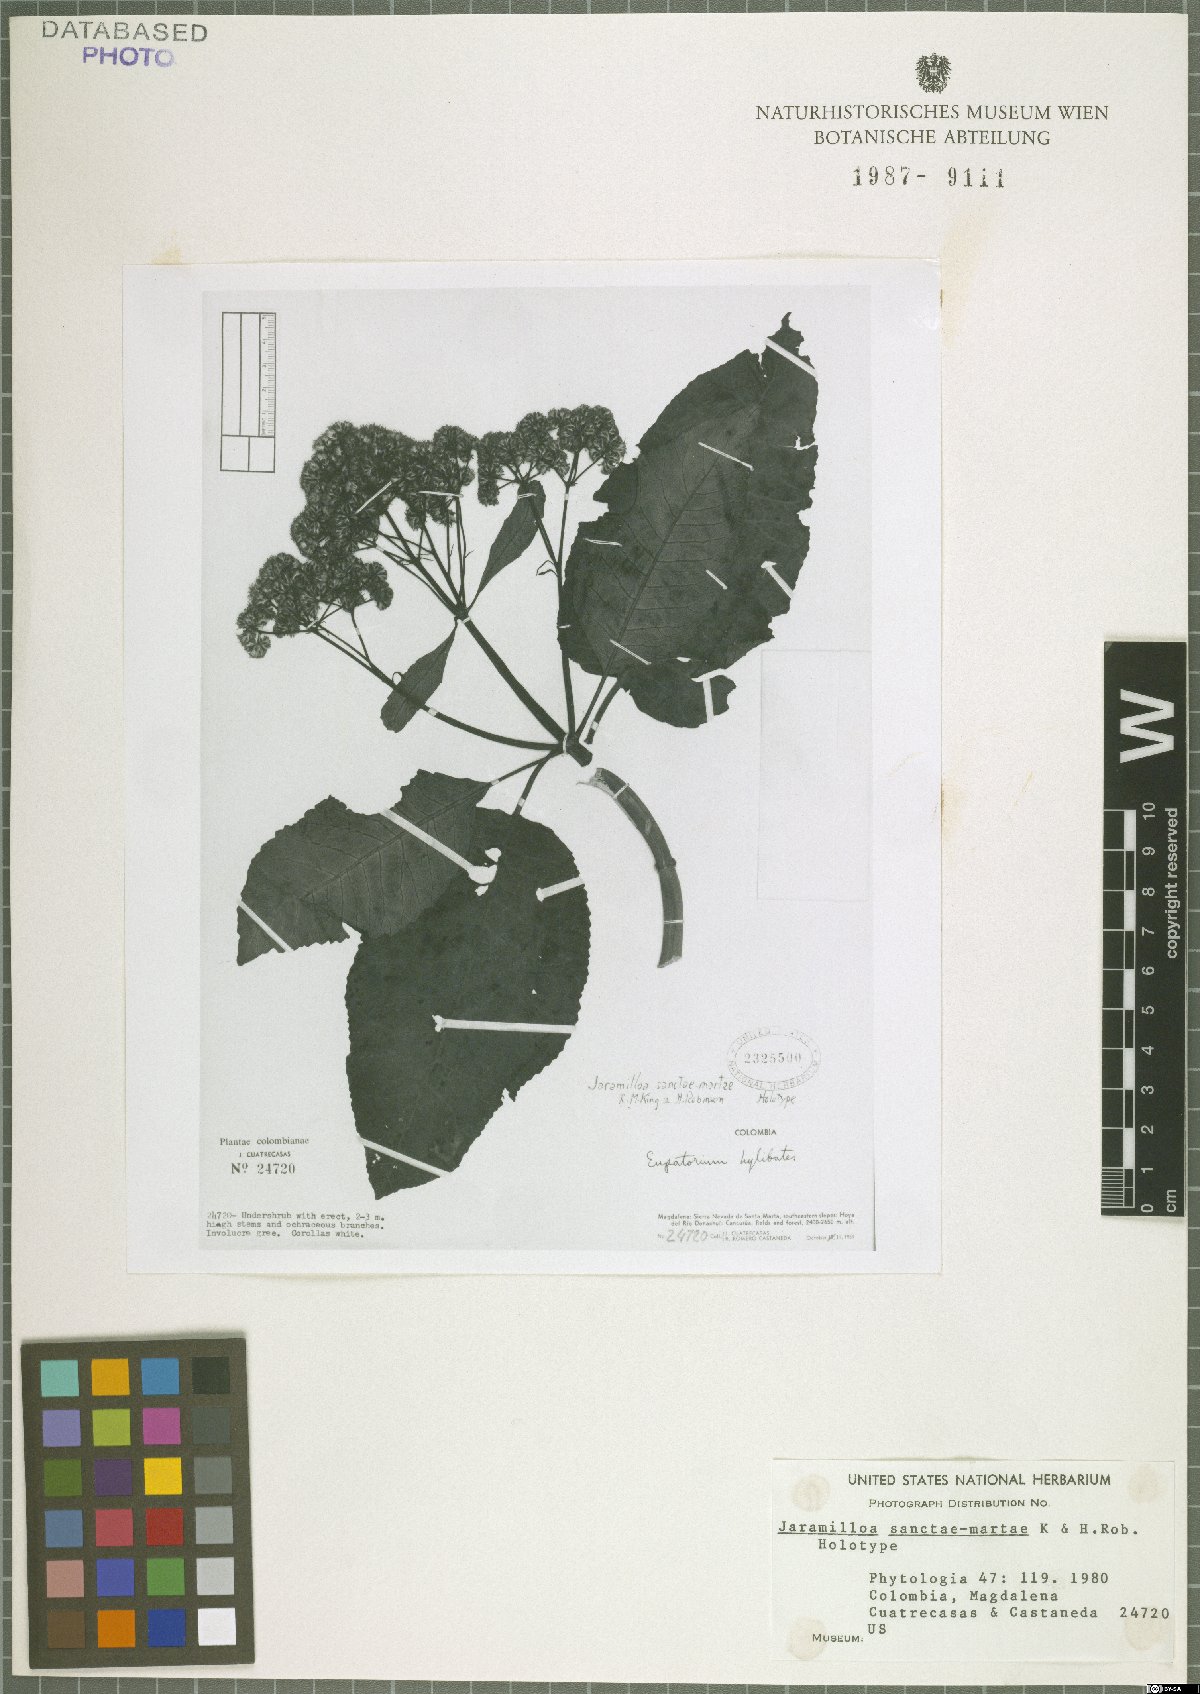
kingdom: Plantae
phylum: Tracheophyta
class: Magnoliopsida
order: Asterales
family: Asteraceae
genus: Jaramilloa
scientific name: Jaramilloa sanctae-martae
